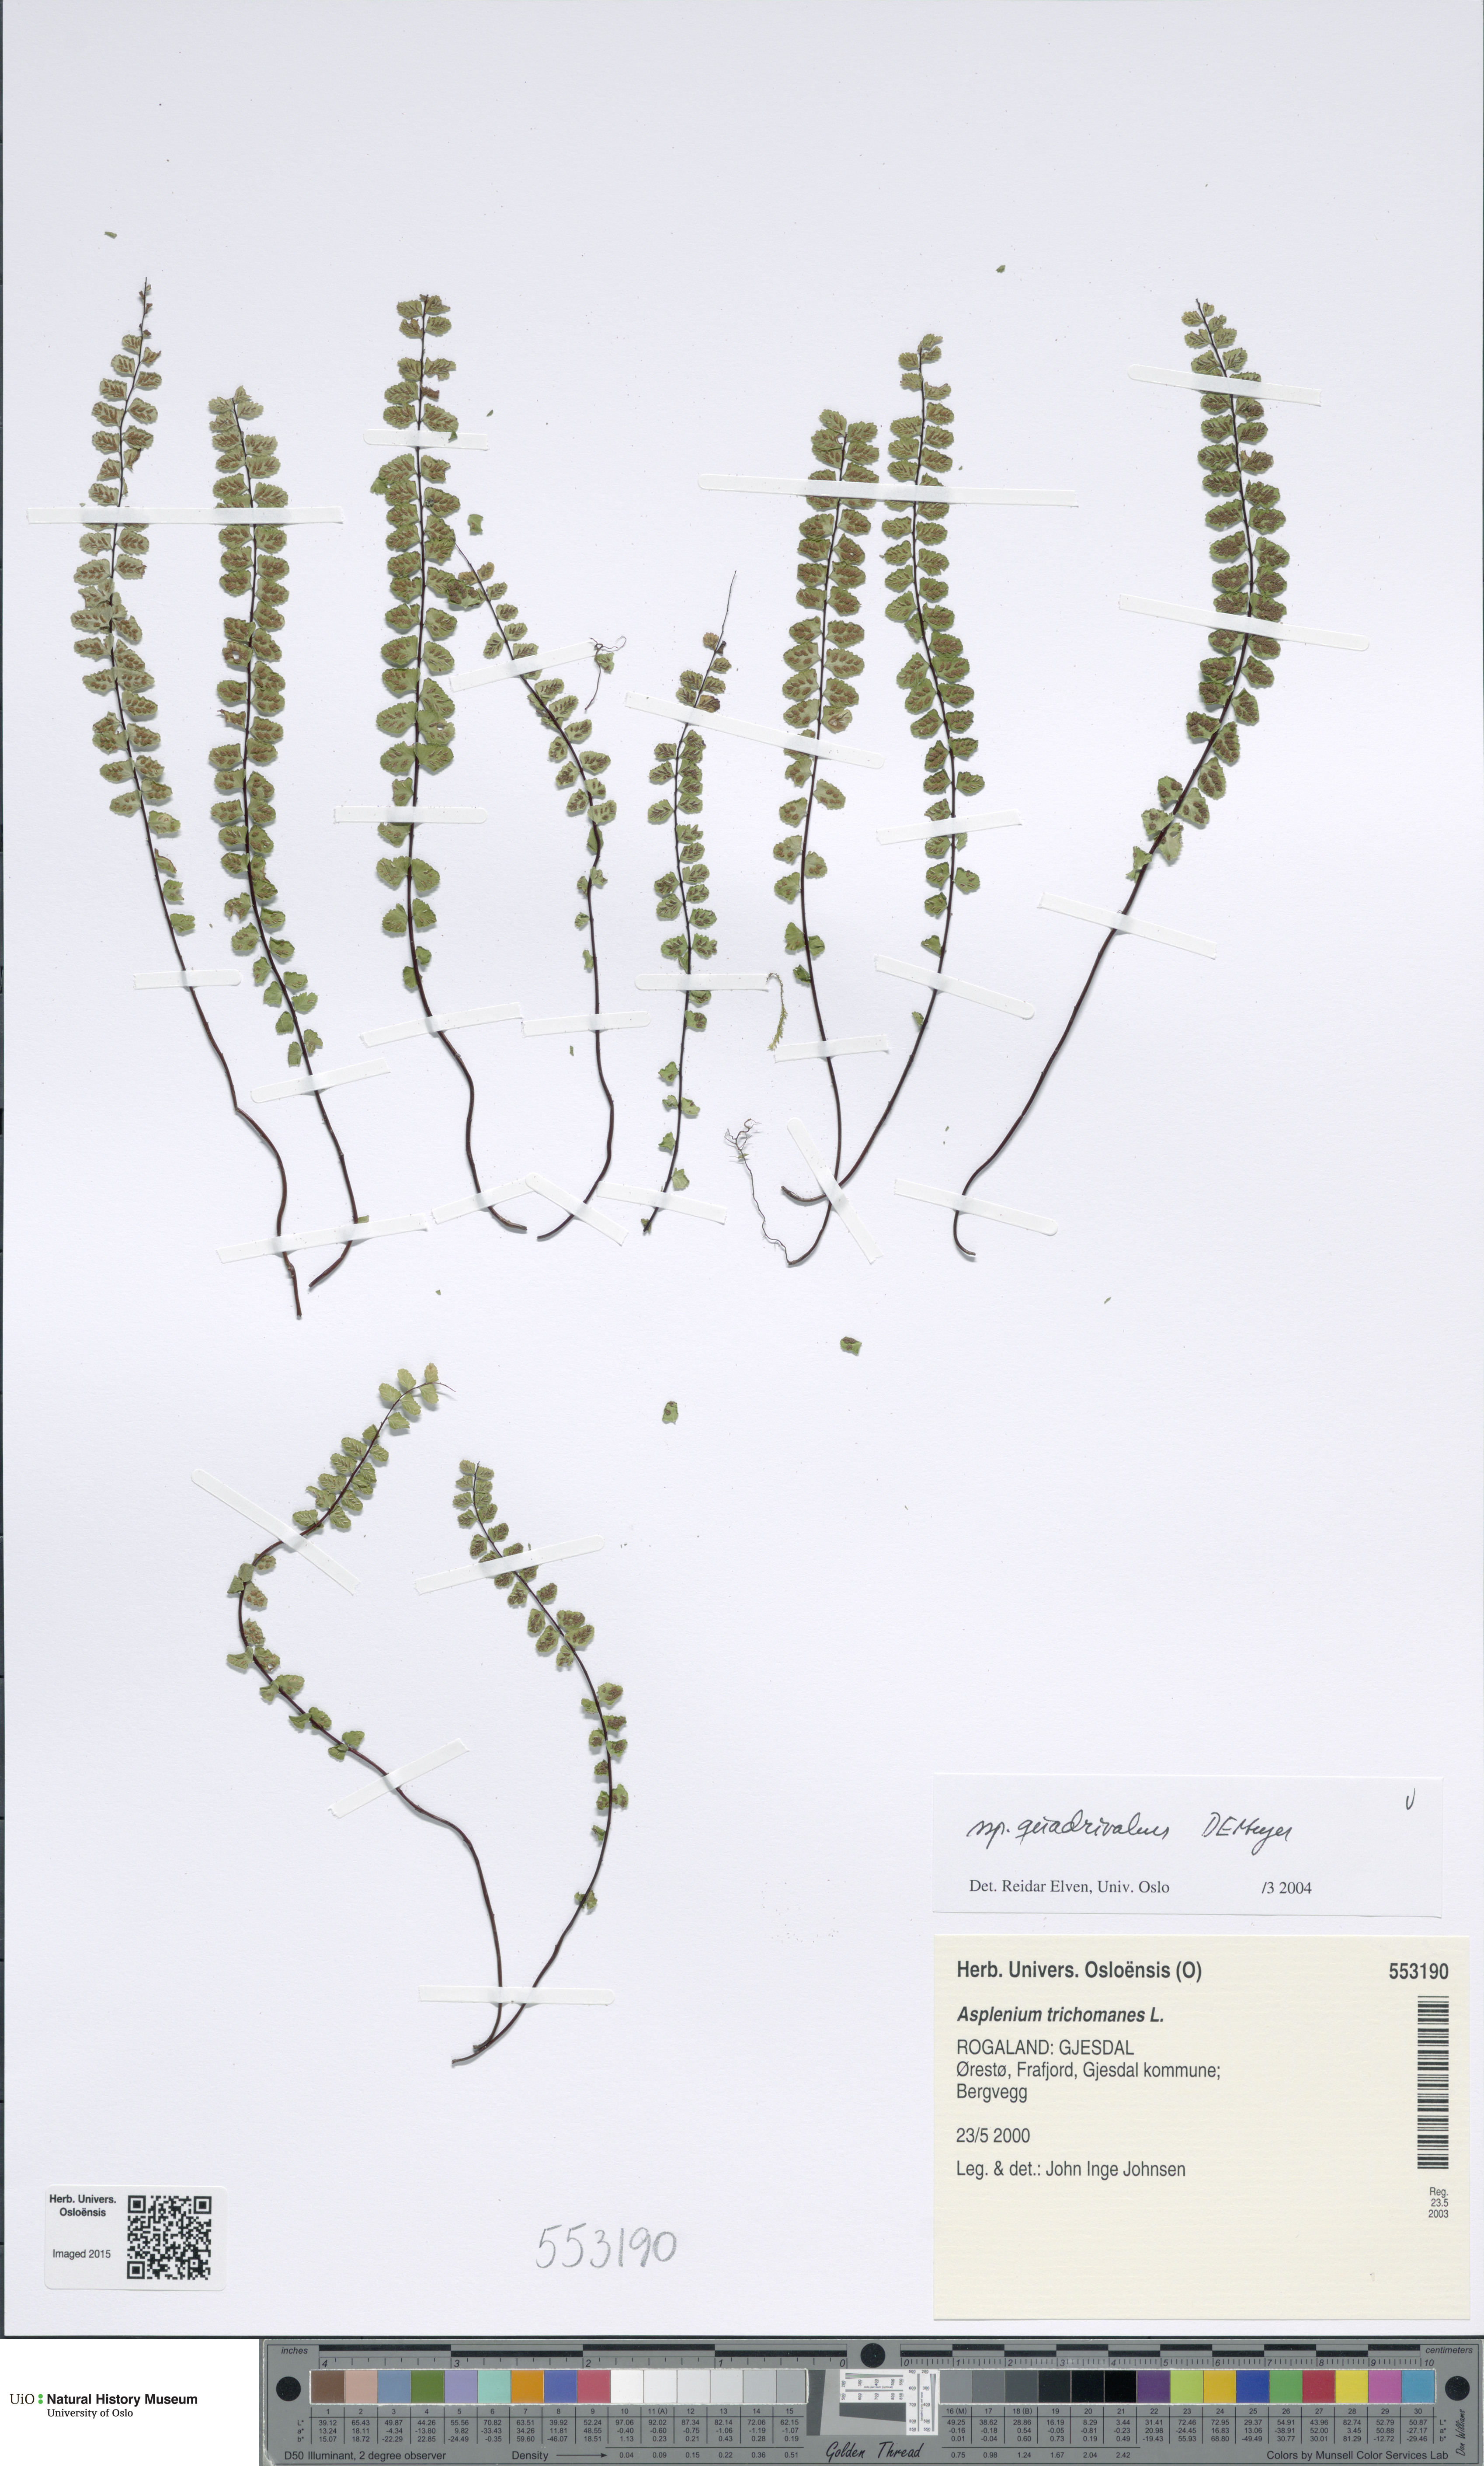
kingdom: Plantae
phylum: Tracheophyta
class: Polypodiopsida
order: Polypodiales
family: Aspleniaceae
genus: Asplenium
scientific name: Asplenium quadrivalens
